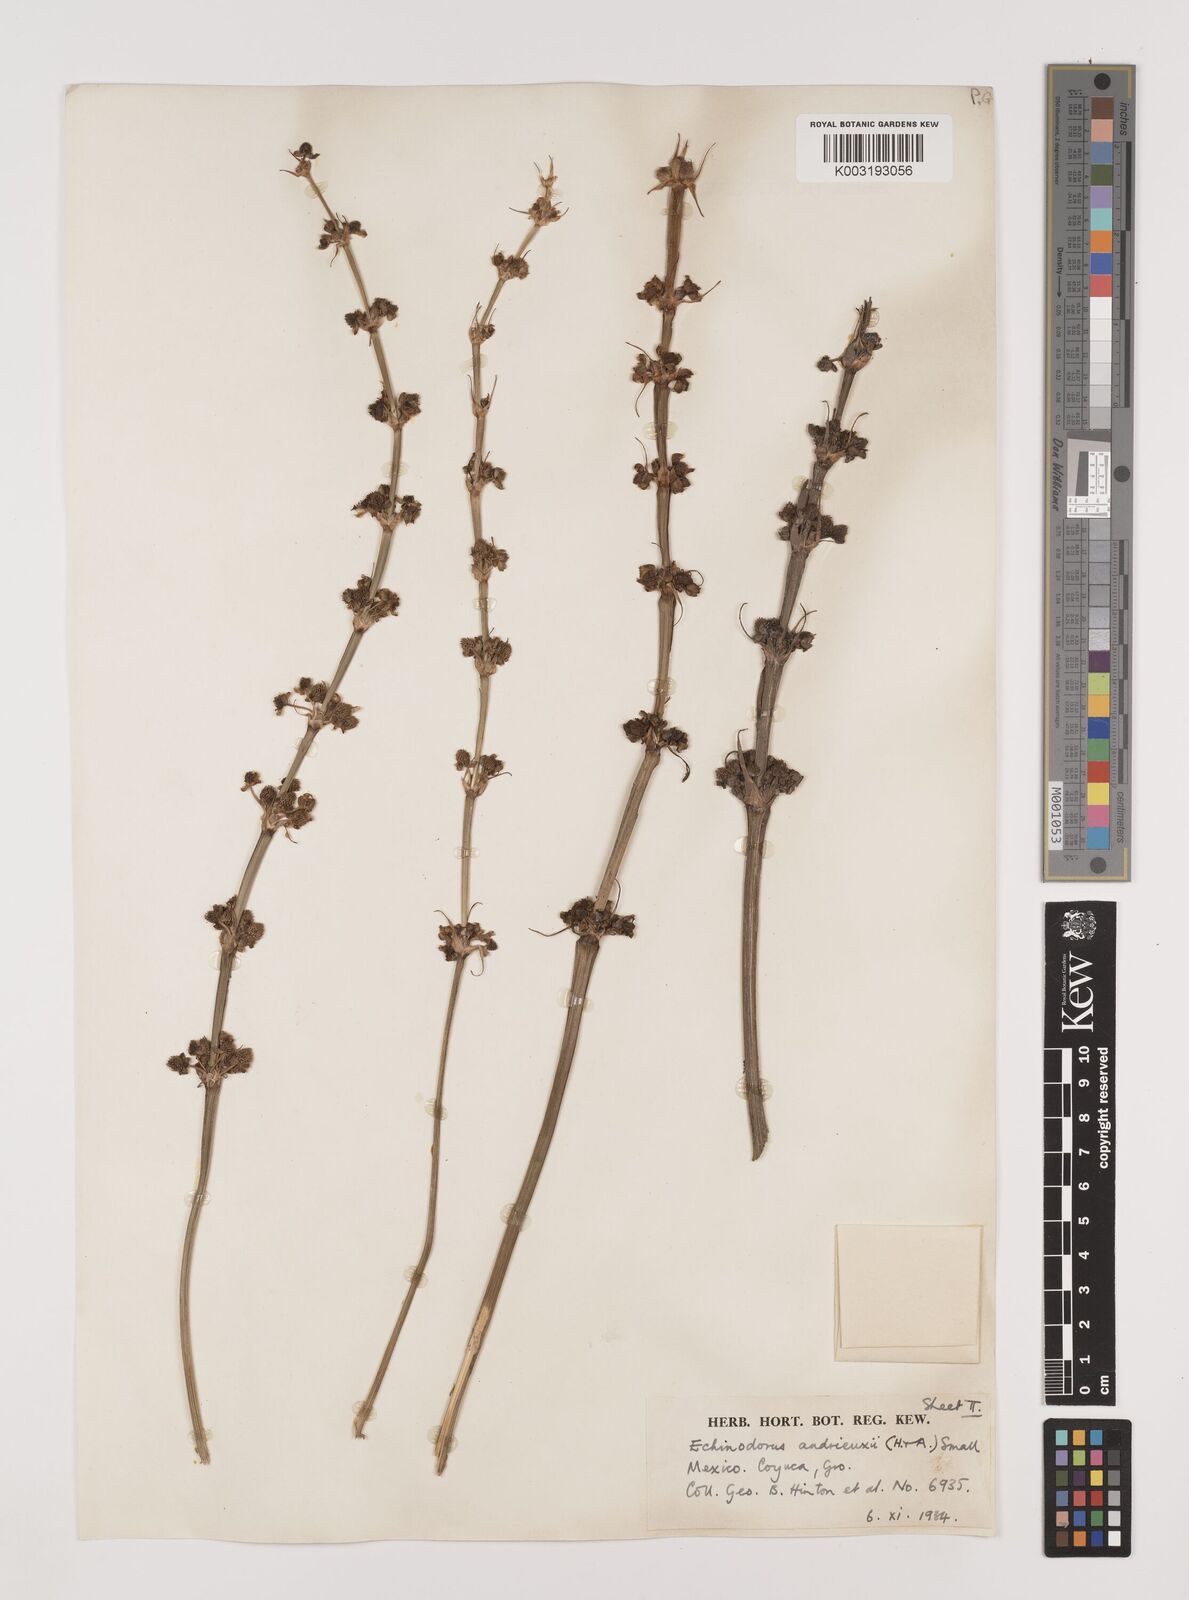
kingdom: Plantae
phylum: Tracheophyta
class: Liliopsida
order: Alismatales
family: Alismataceae
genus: Aquarius
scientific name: Aquarius subulatus
